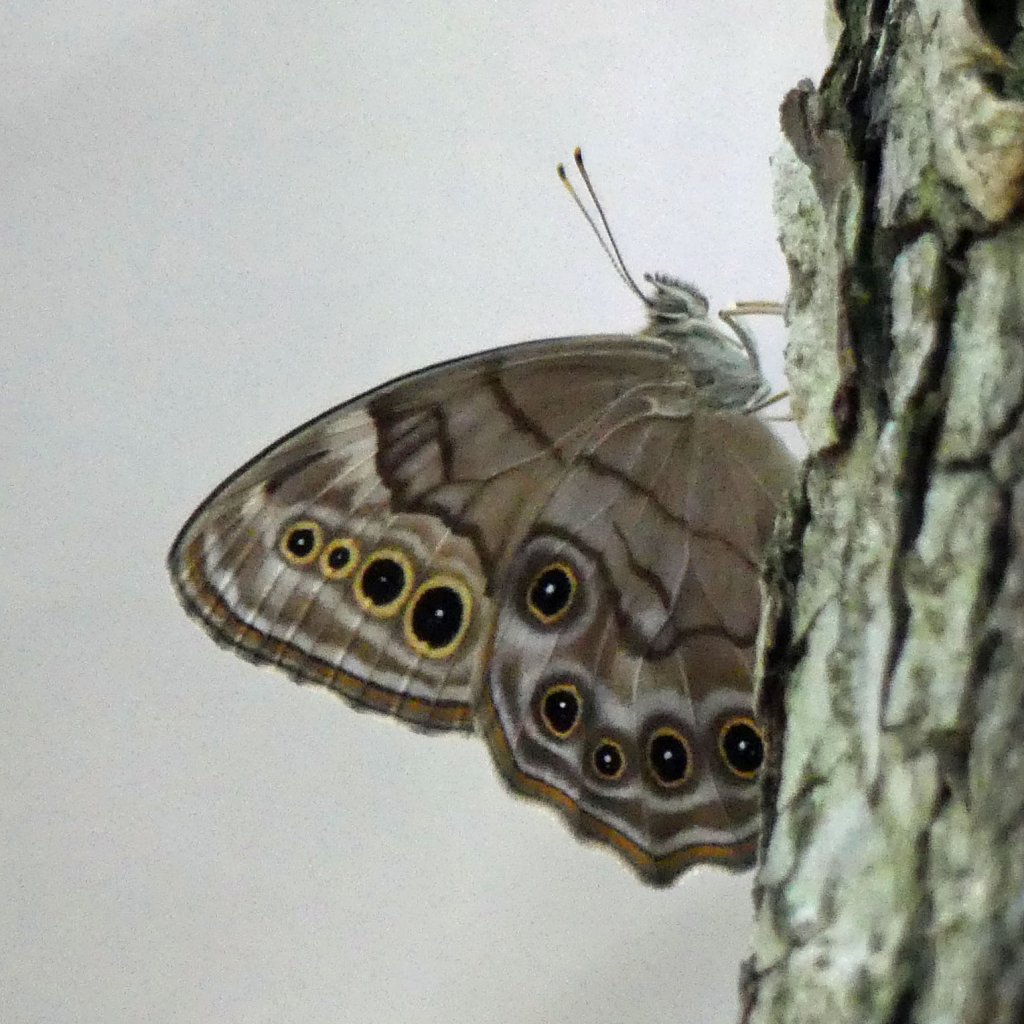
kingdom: Animalia
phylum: Arthropoda
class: Insecta
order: Lepidoptera
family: Nymphalidae
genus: Lethe
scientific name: Lethe anthedon
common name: Northern Pearly-Eye
